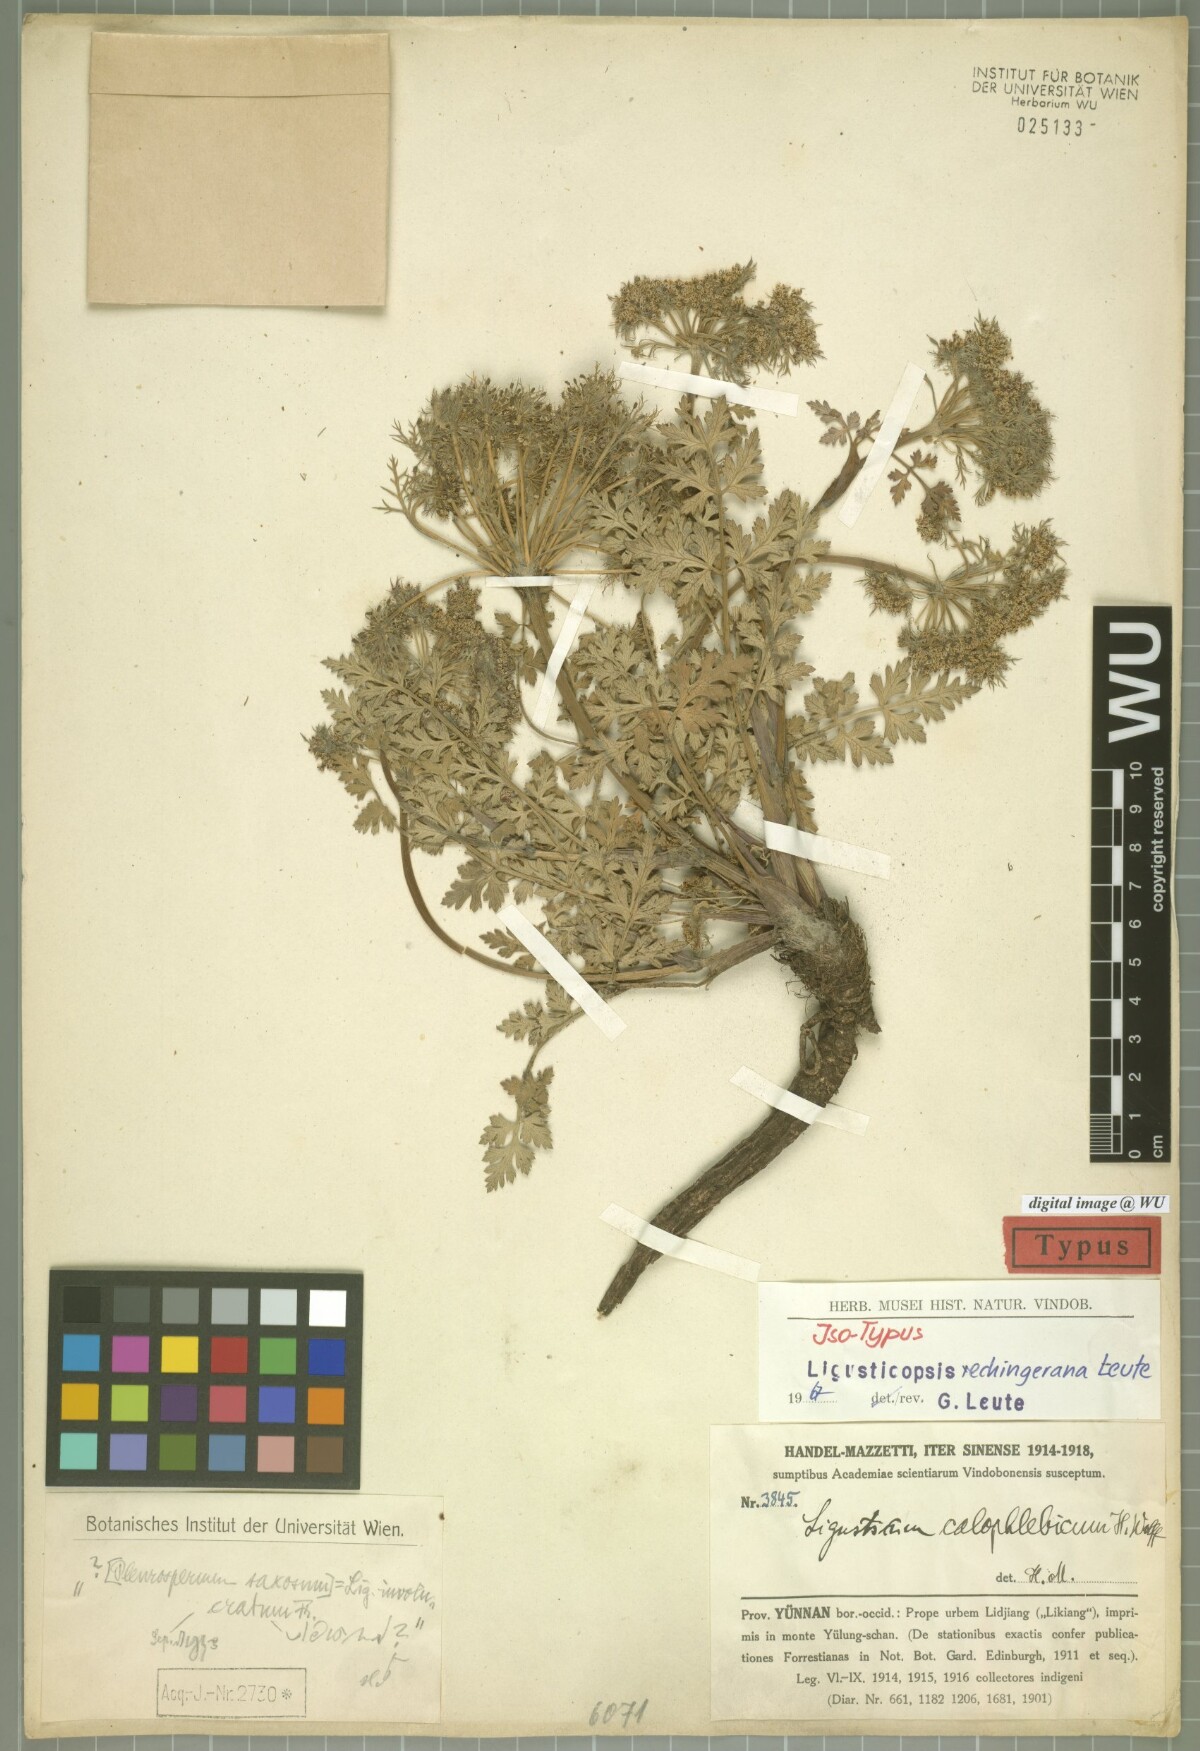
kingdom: Plantae
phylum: Tracheophyta
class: Magnoliopsida
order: Apiales
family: Apiaceae
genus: Ligusticopsis
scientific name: Ligusticopsis rechingerana
